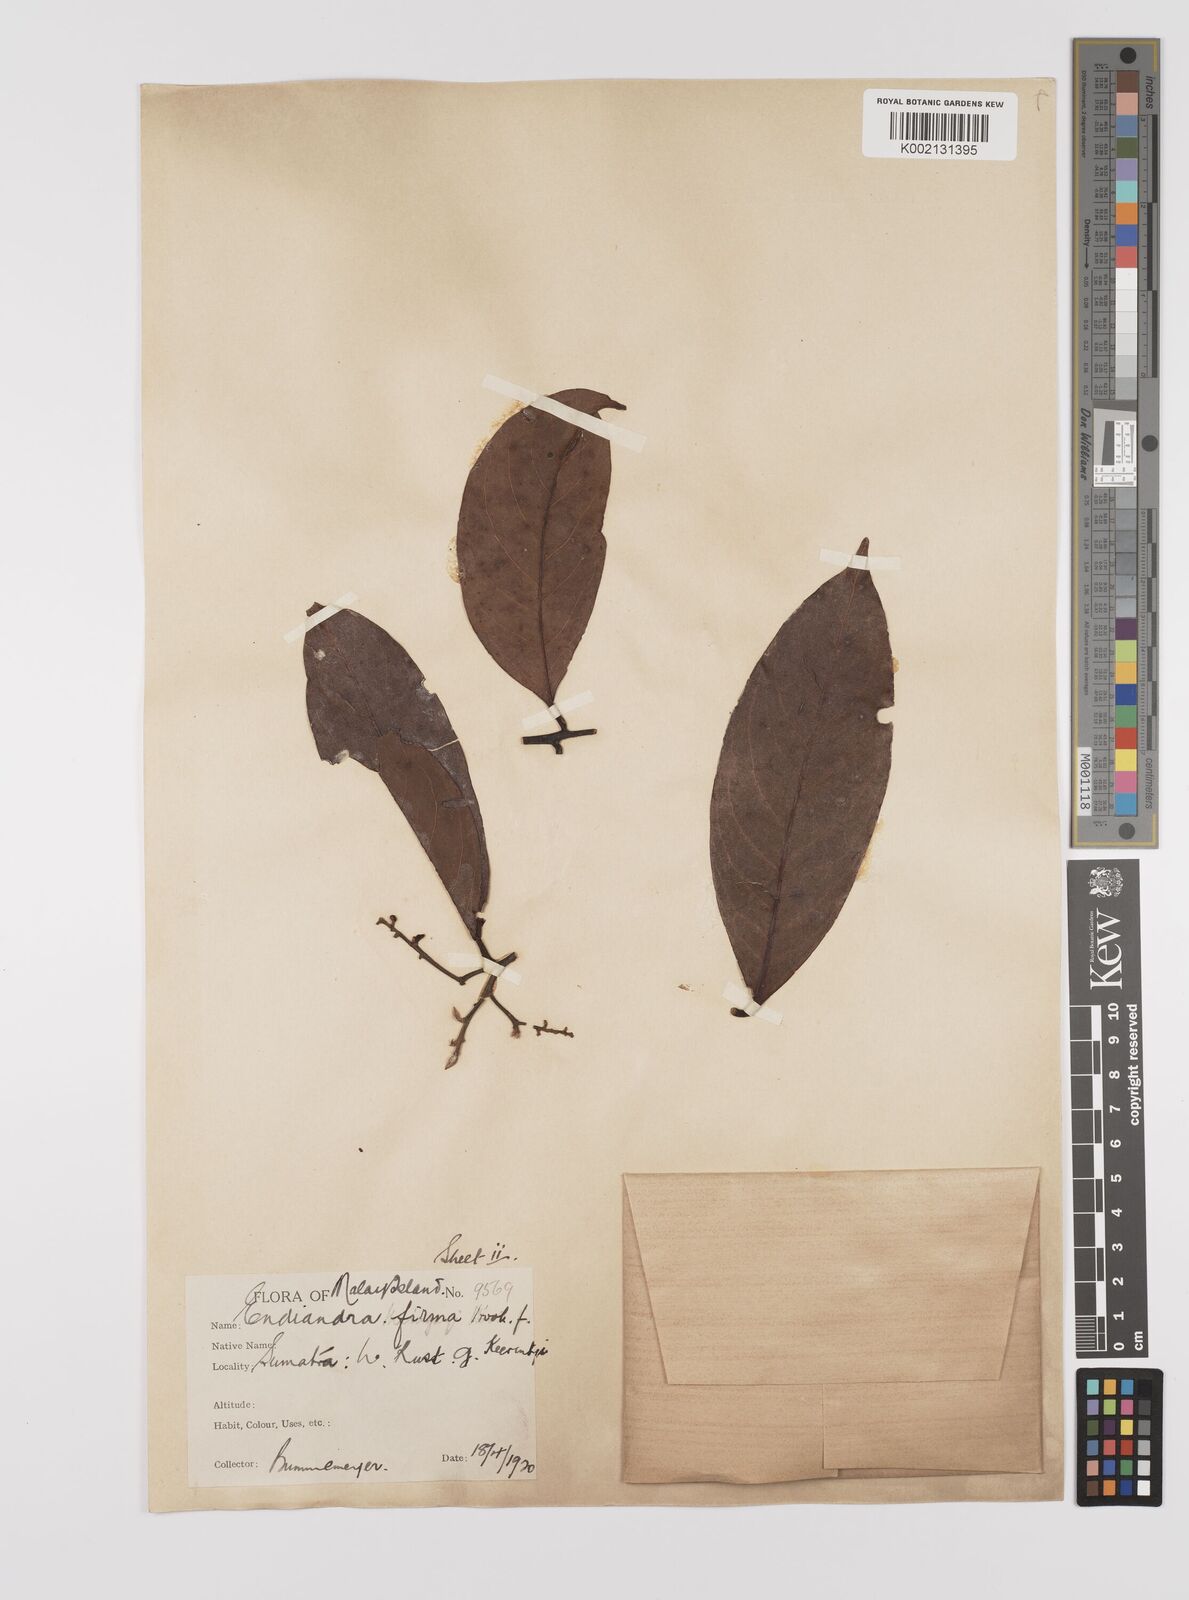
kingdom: Plantae
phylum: Tracheophyta
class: Magnoliopsida
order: Laurales
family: Lauraceae
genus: Endiandra
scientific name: Endiandra firma
